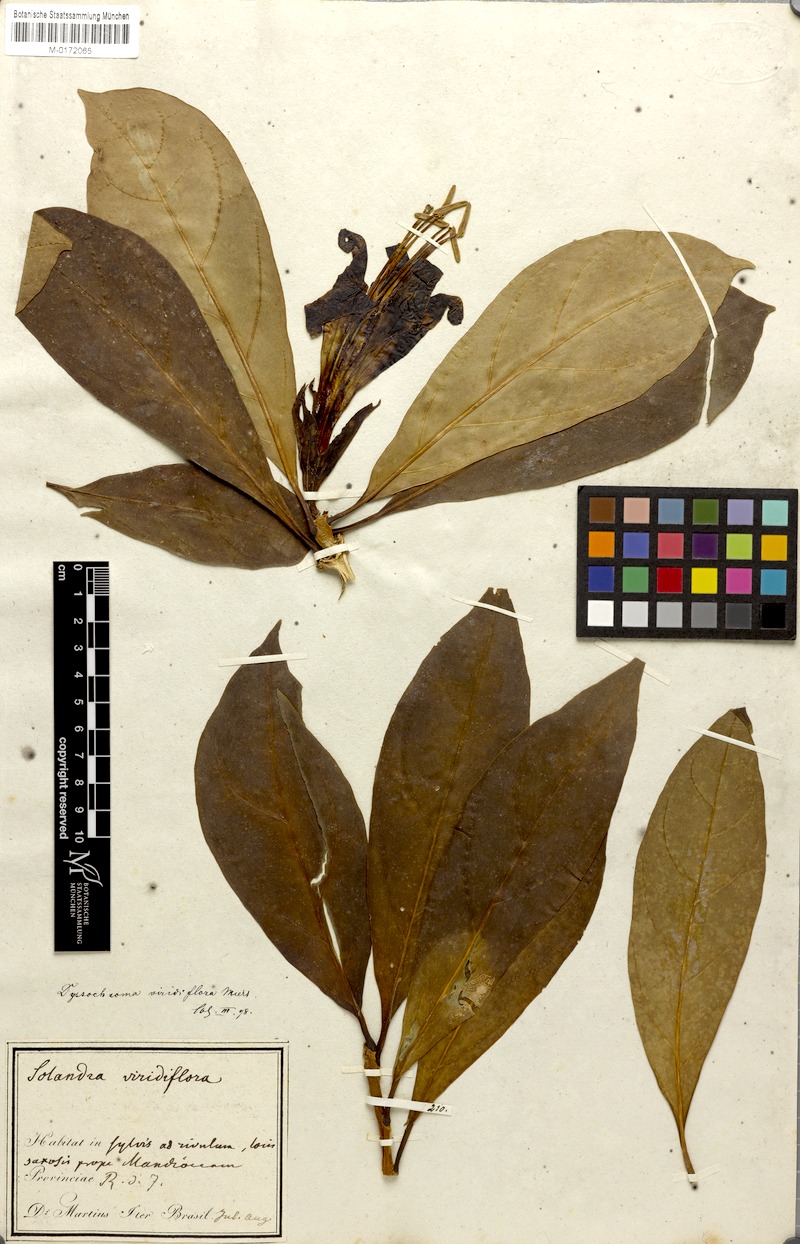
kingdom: Plantae
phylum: Tracheophyta
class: Magnoliopsida
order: Solanales
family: Solanaceae
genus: Dyssochroma
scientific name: Dyssochroma viridiflorum
